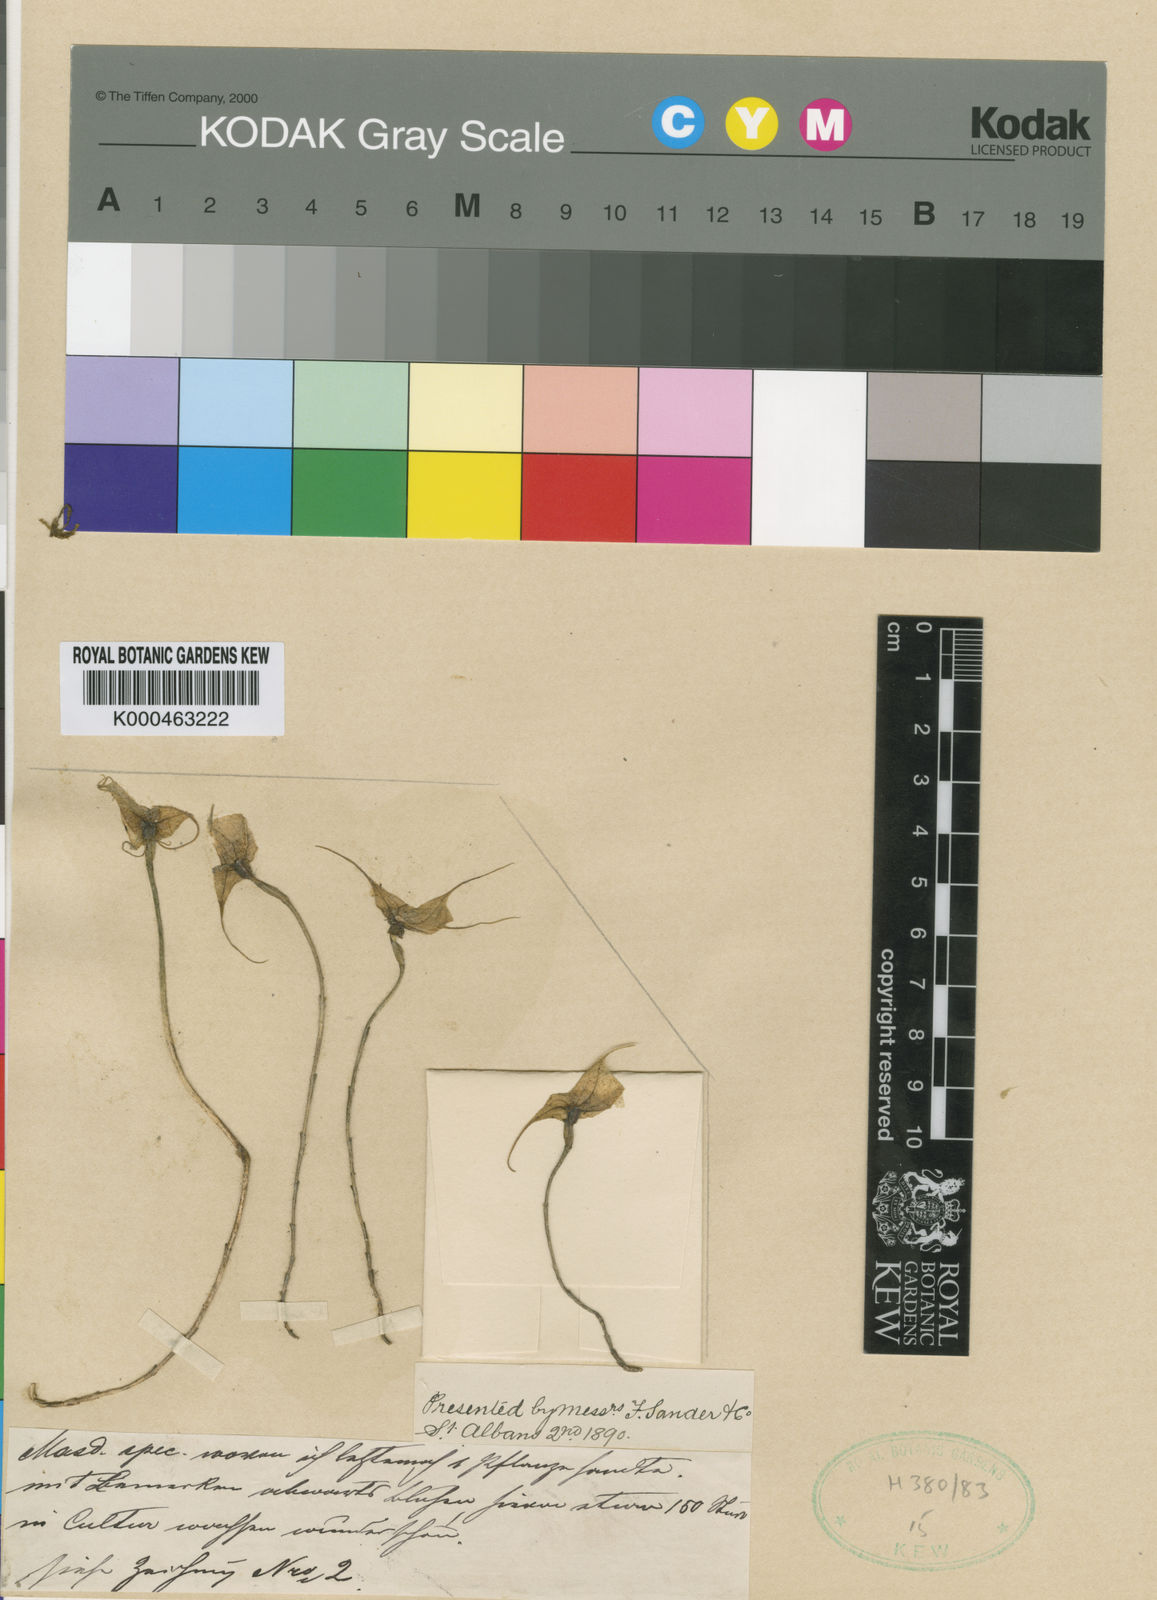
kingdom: Plantae
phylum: Tracheophyta
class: Liliopsida
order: Asparagales
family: Orchidaceae
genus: Dracula
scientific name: Dracula erythrochaete
